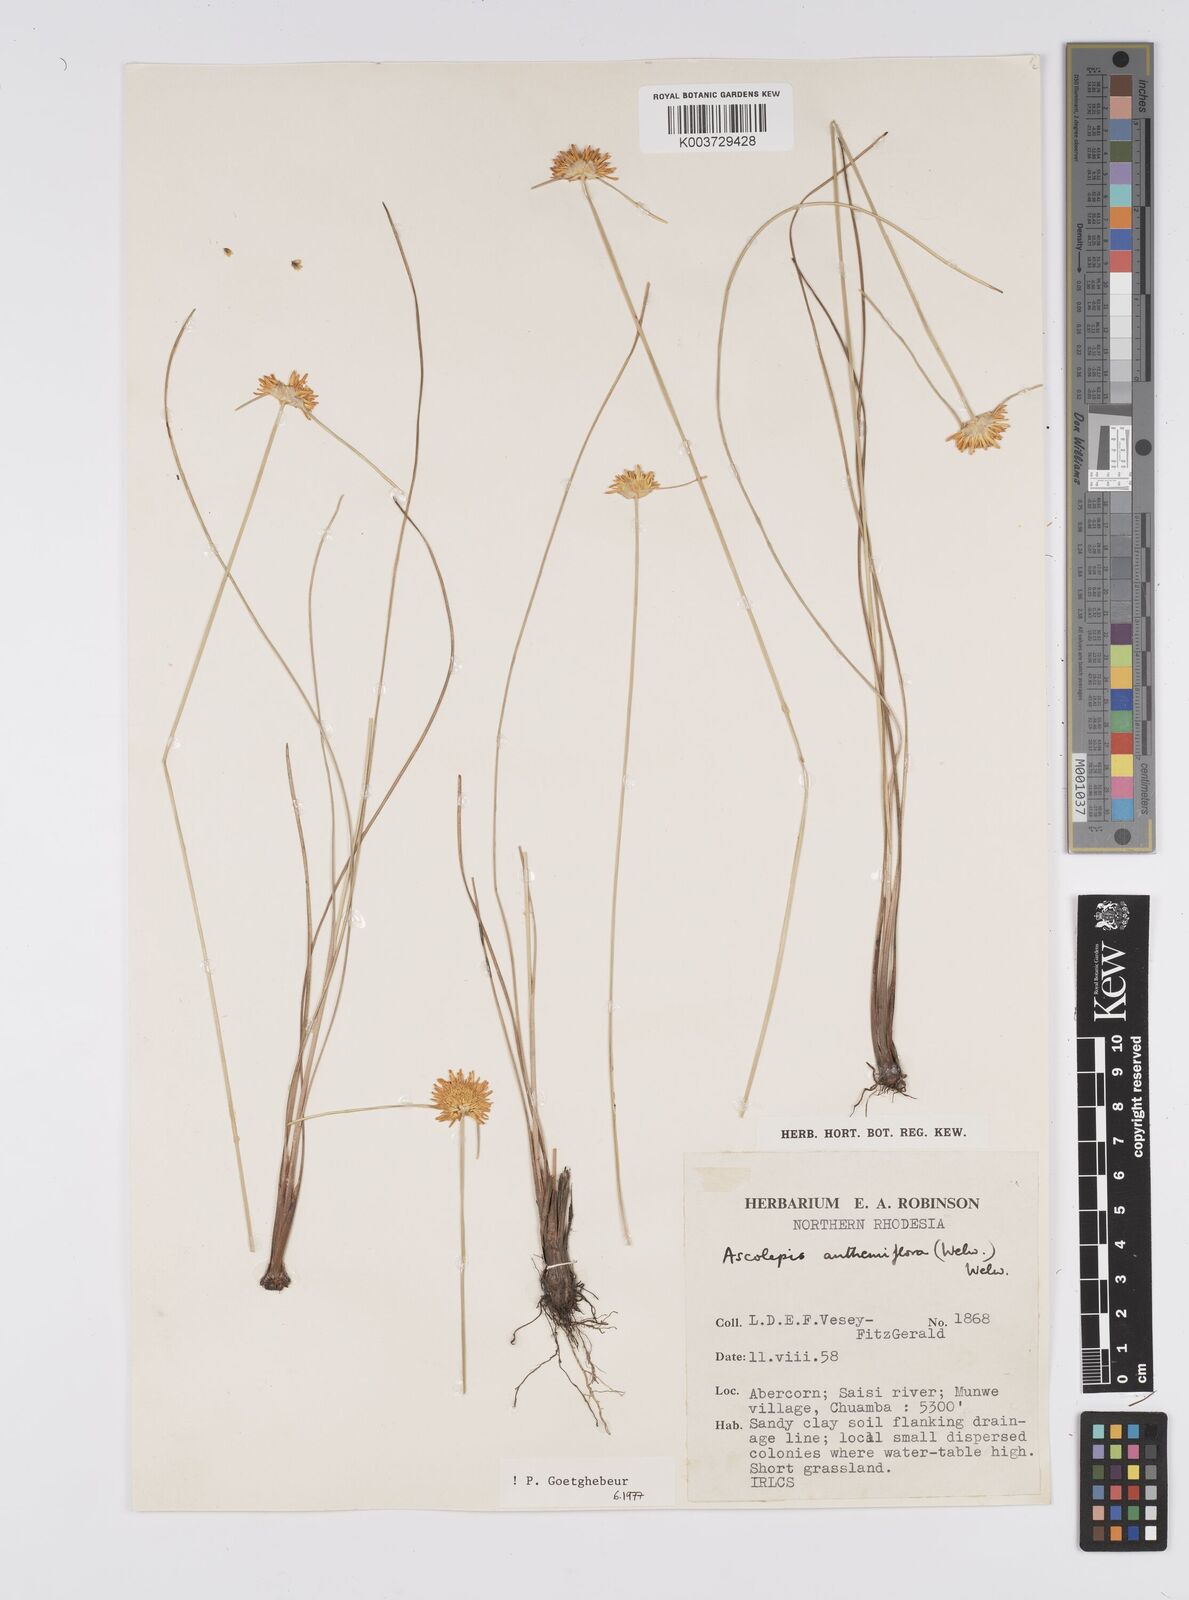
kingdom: Plantae
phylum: Tracheophyta
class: Liliopsida
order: Poales
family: Cyperaceae
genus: Cyperus
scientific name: Cyperus
